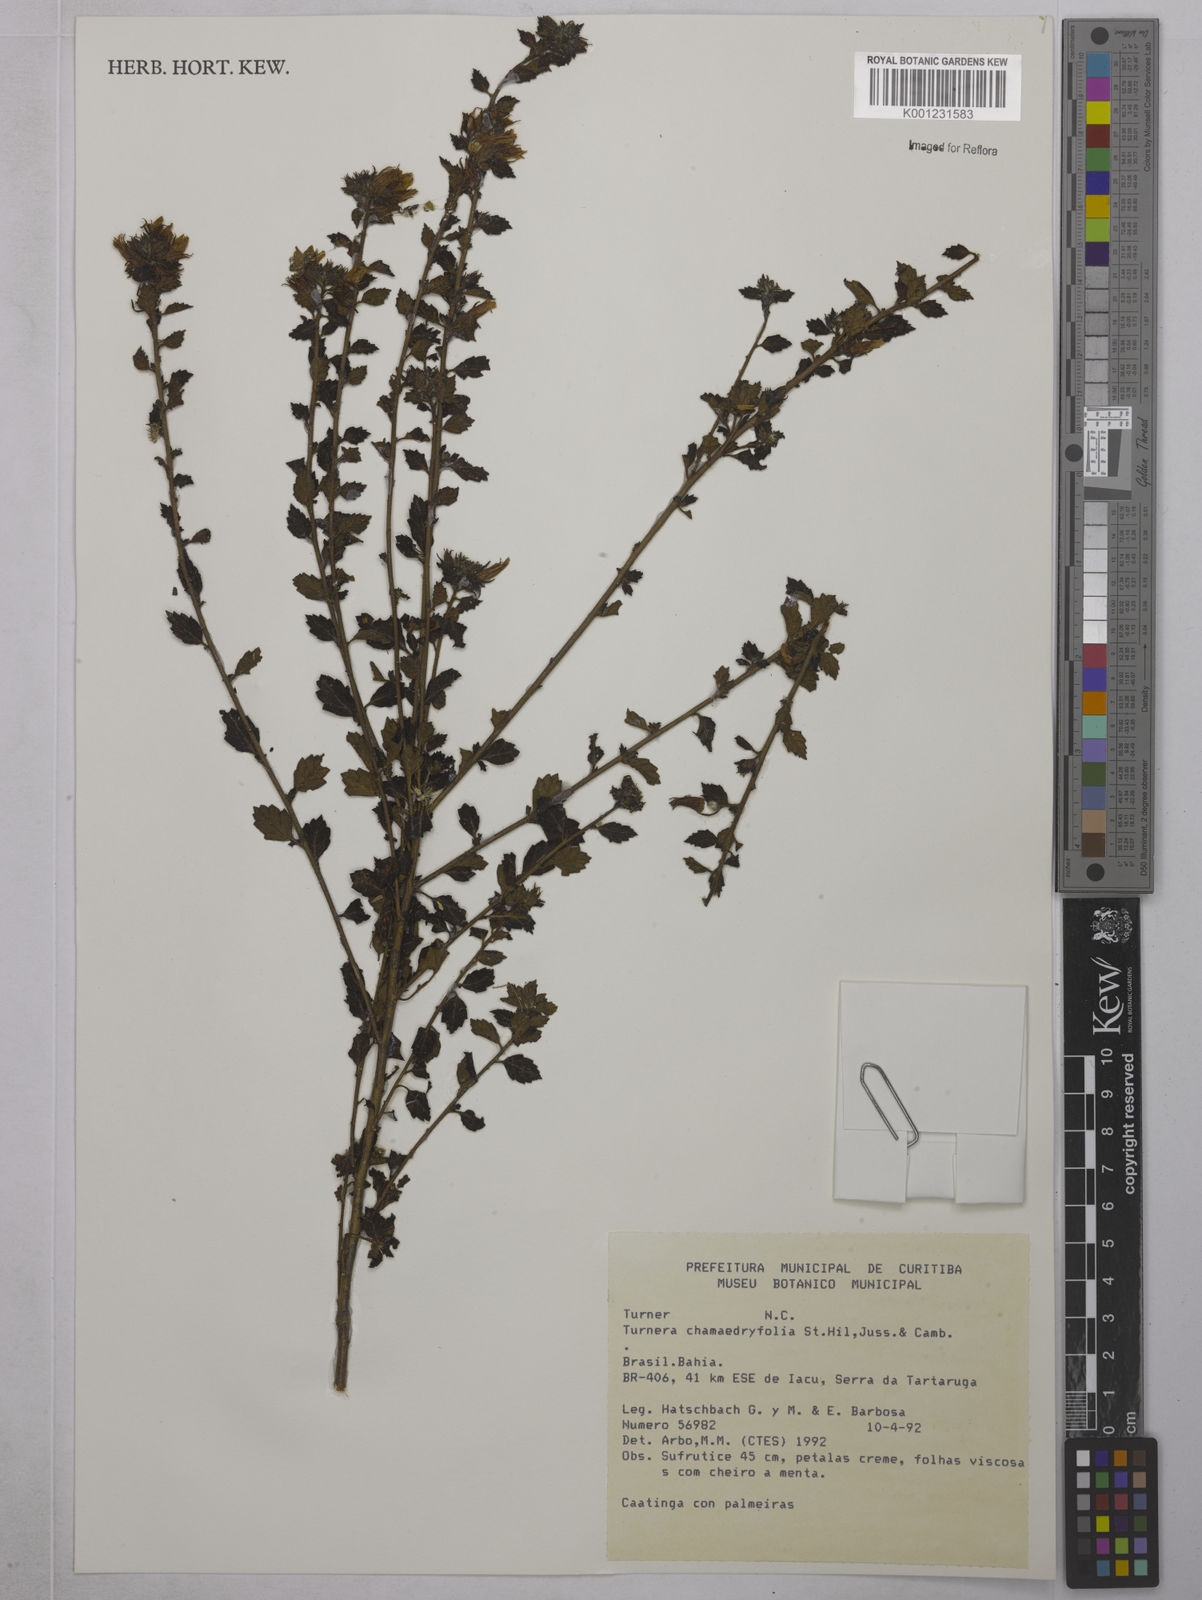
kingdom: Plantae
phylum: Tracheophyta
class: Magnoliopsida
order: Malpighiales
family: Turneraceae
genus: Turnera
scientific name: Turnera chamaedrifolia
